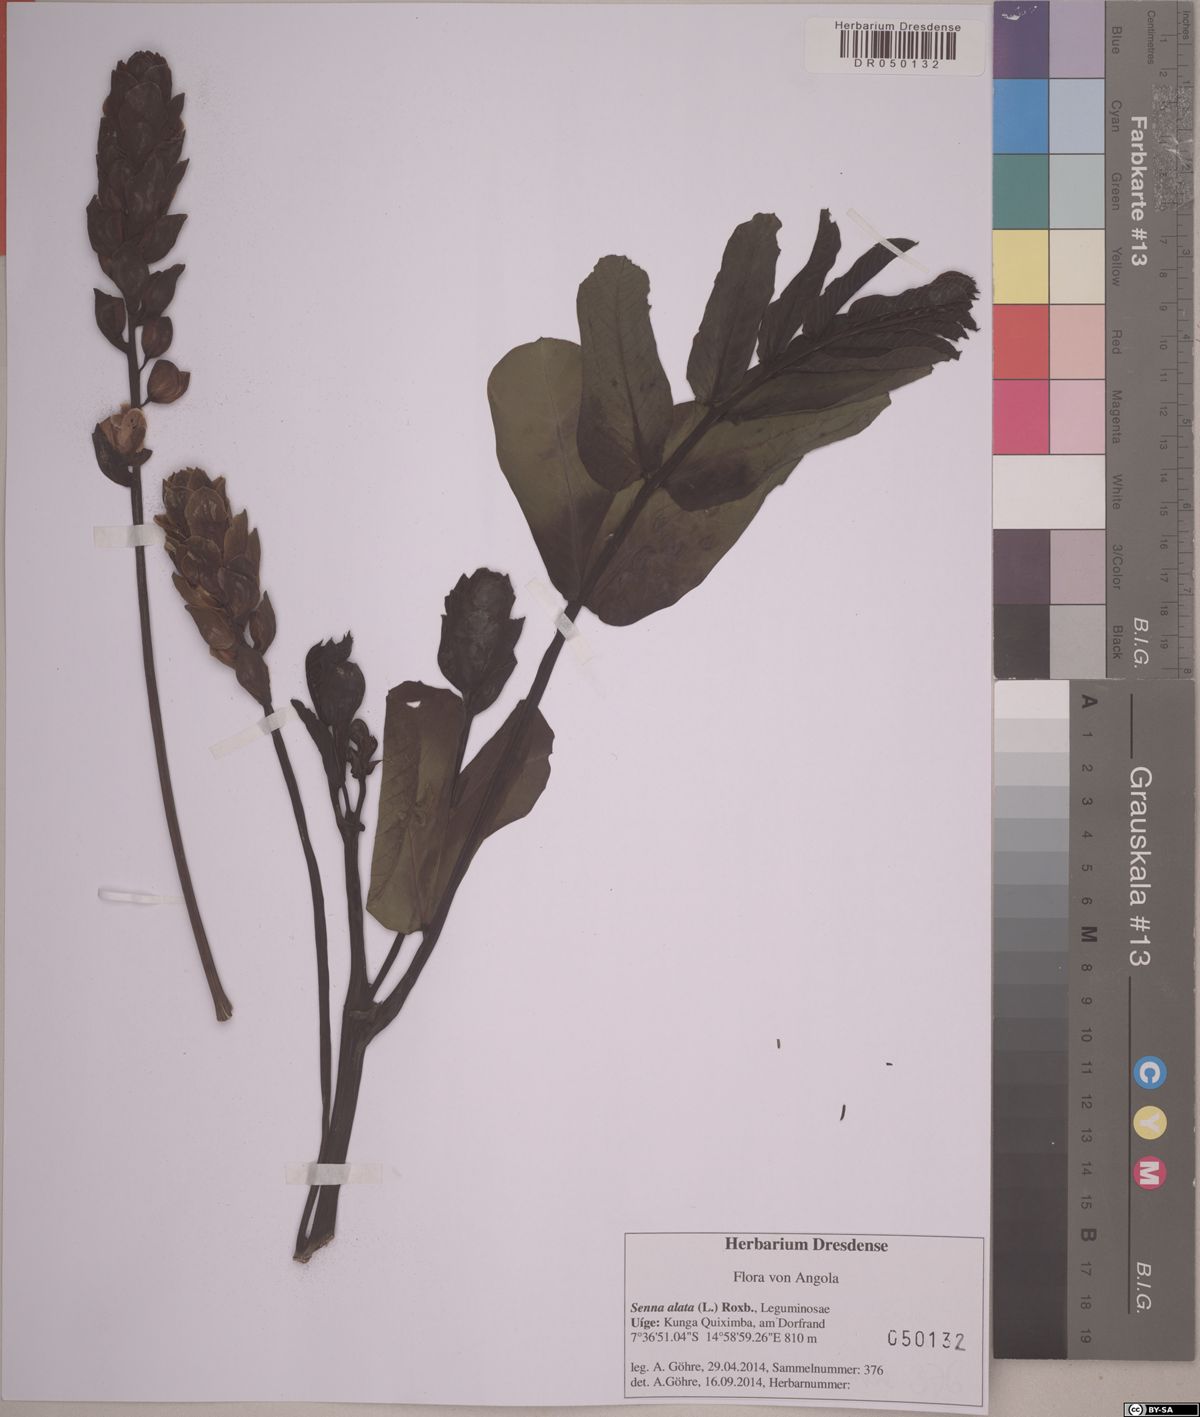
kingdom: Plantae
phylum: Tracheophyta
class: Magnoliopsida
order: Fabales
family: Fabaceae
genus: Senna
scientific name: Senna alata
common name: Emperor's candlesticks
